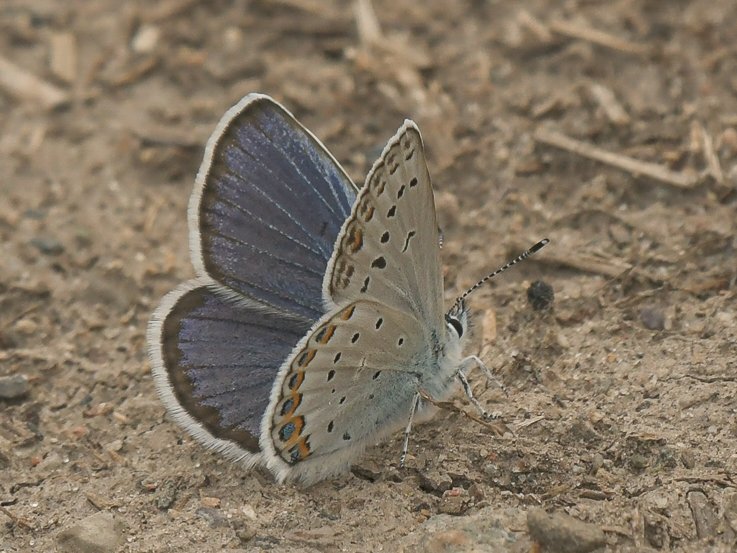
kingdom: Animalia
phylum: Arthropoda
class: Insecta
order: Lepidoptera
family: Lycaenidae
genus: Lycaeides
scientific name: Lycaeides idas
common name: Northern Blue
